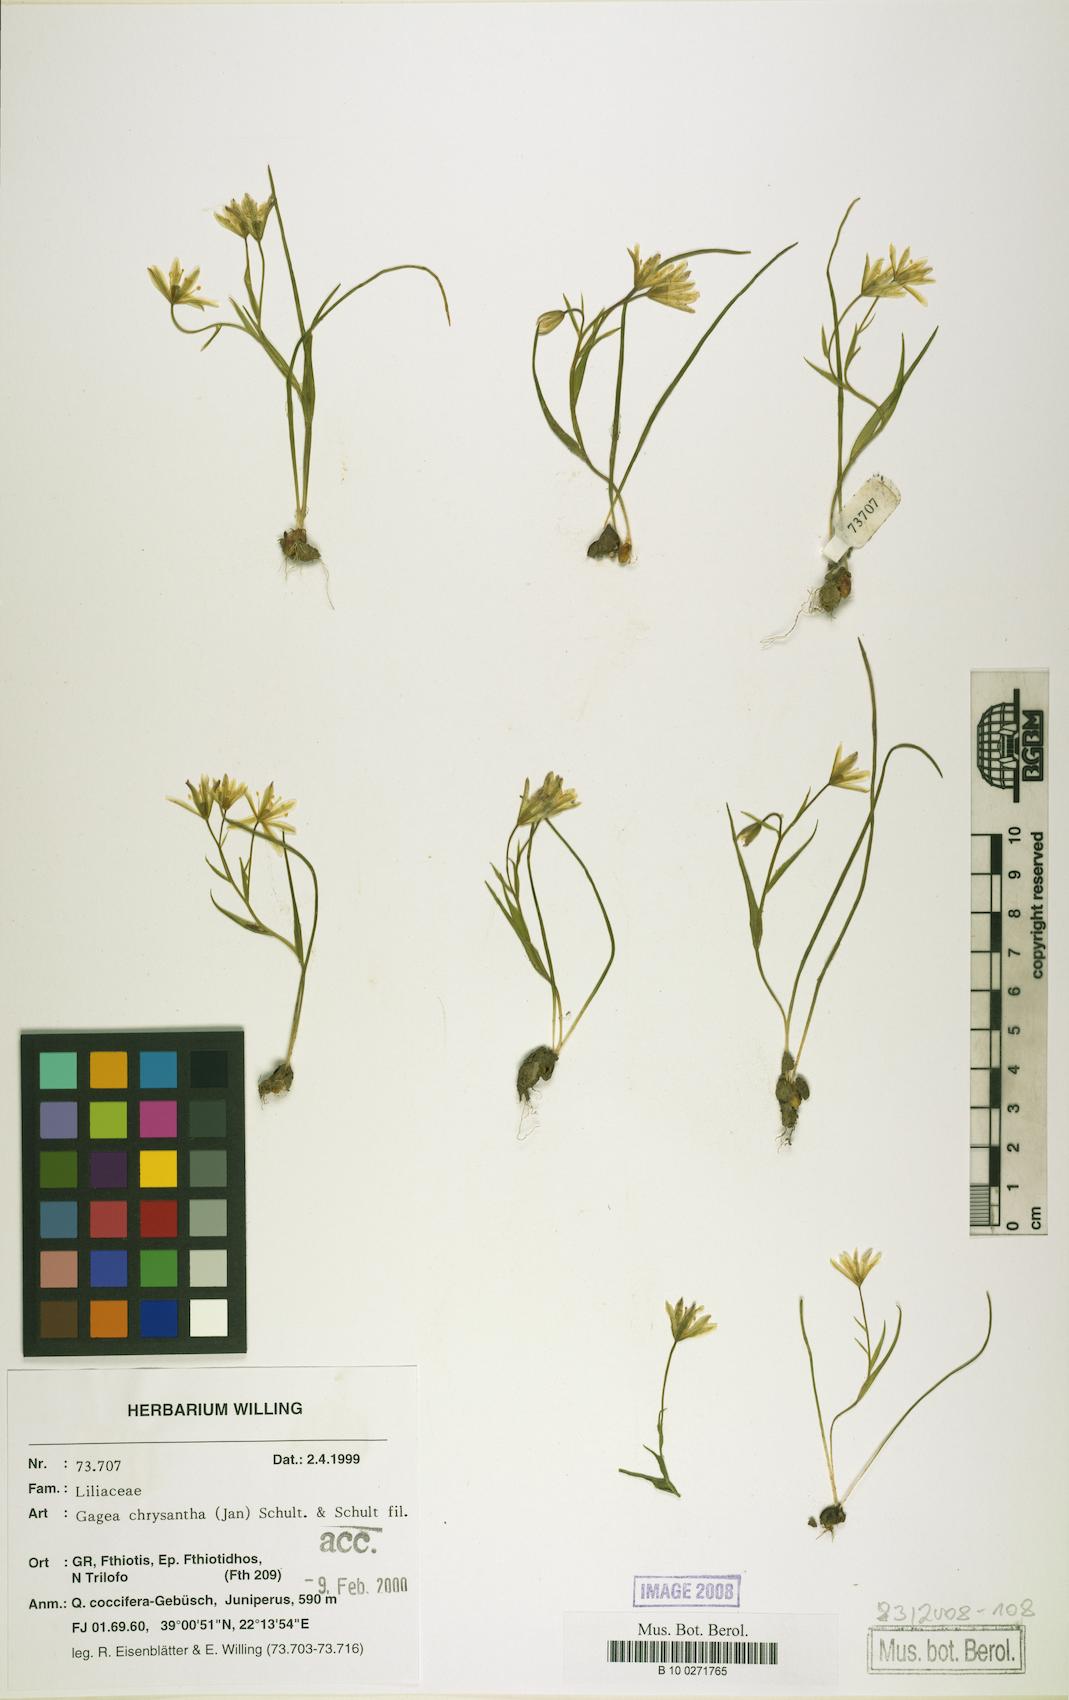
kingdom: Plantae
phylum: Tracheophyta
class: Liliopsida
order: Liliales
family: Liliaceae
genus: Gagea
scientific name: Gagea chrysantha
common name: Golden gagea
